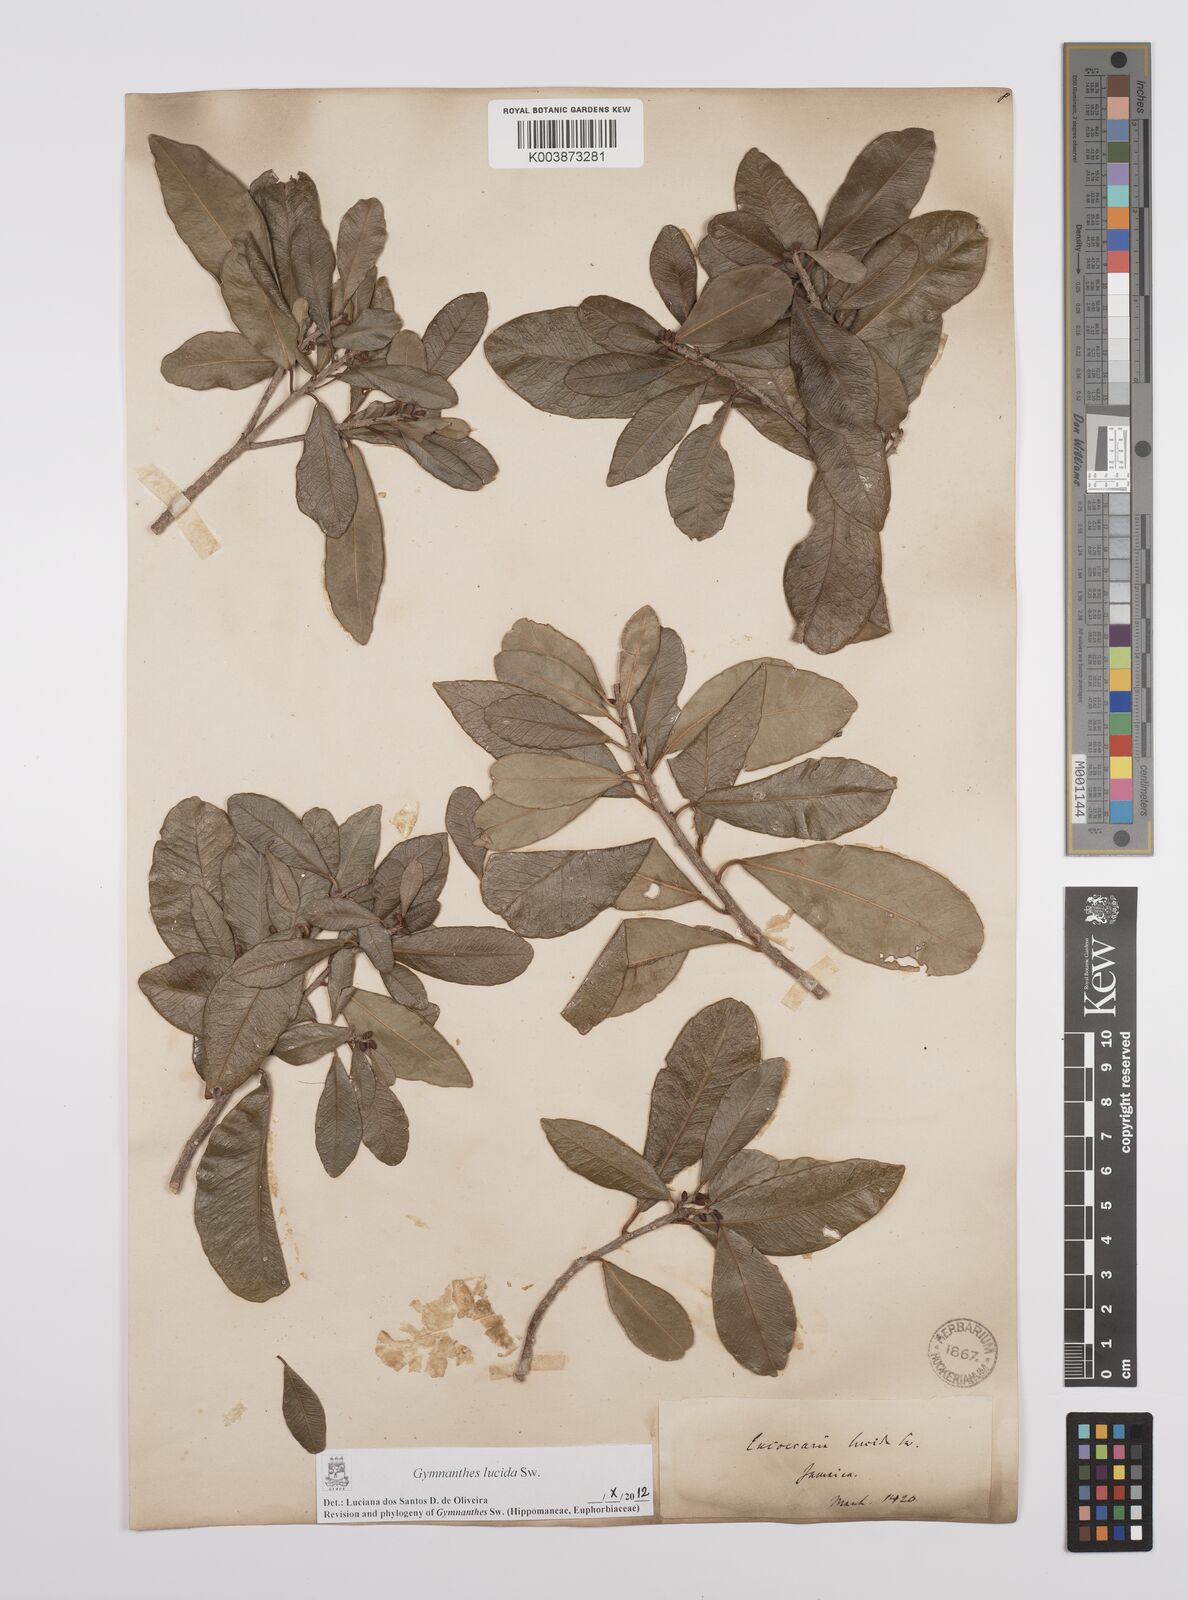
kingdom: Plantae
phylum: Tracheophyta
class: Magnoliopsida
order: Malpighiales
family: Euphorbiaceae
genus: Gymnanthes
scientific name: Gymnanthes lucida
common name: Oysterwood
